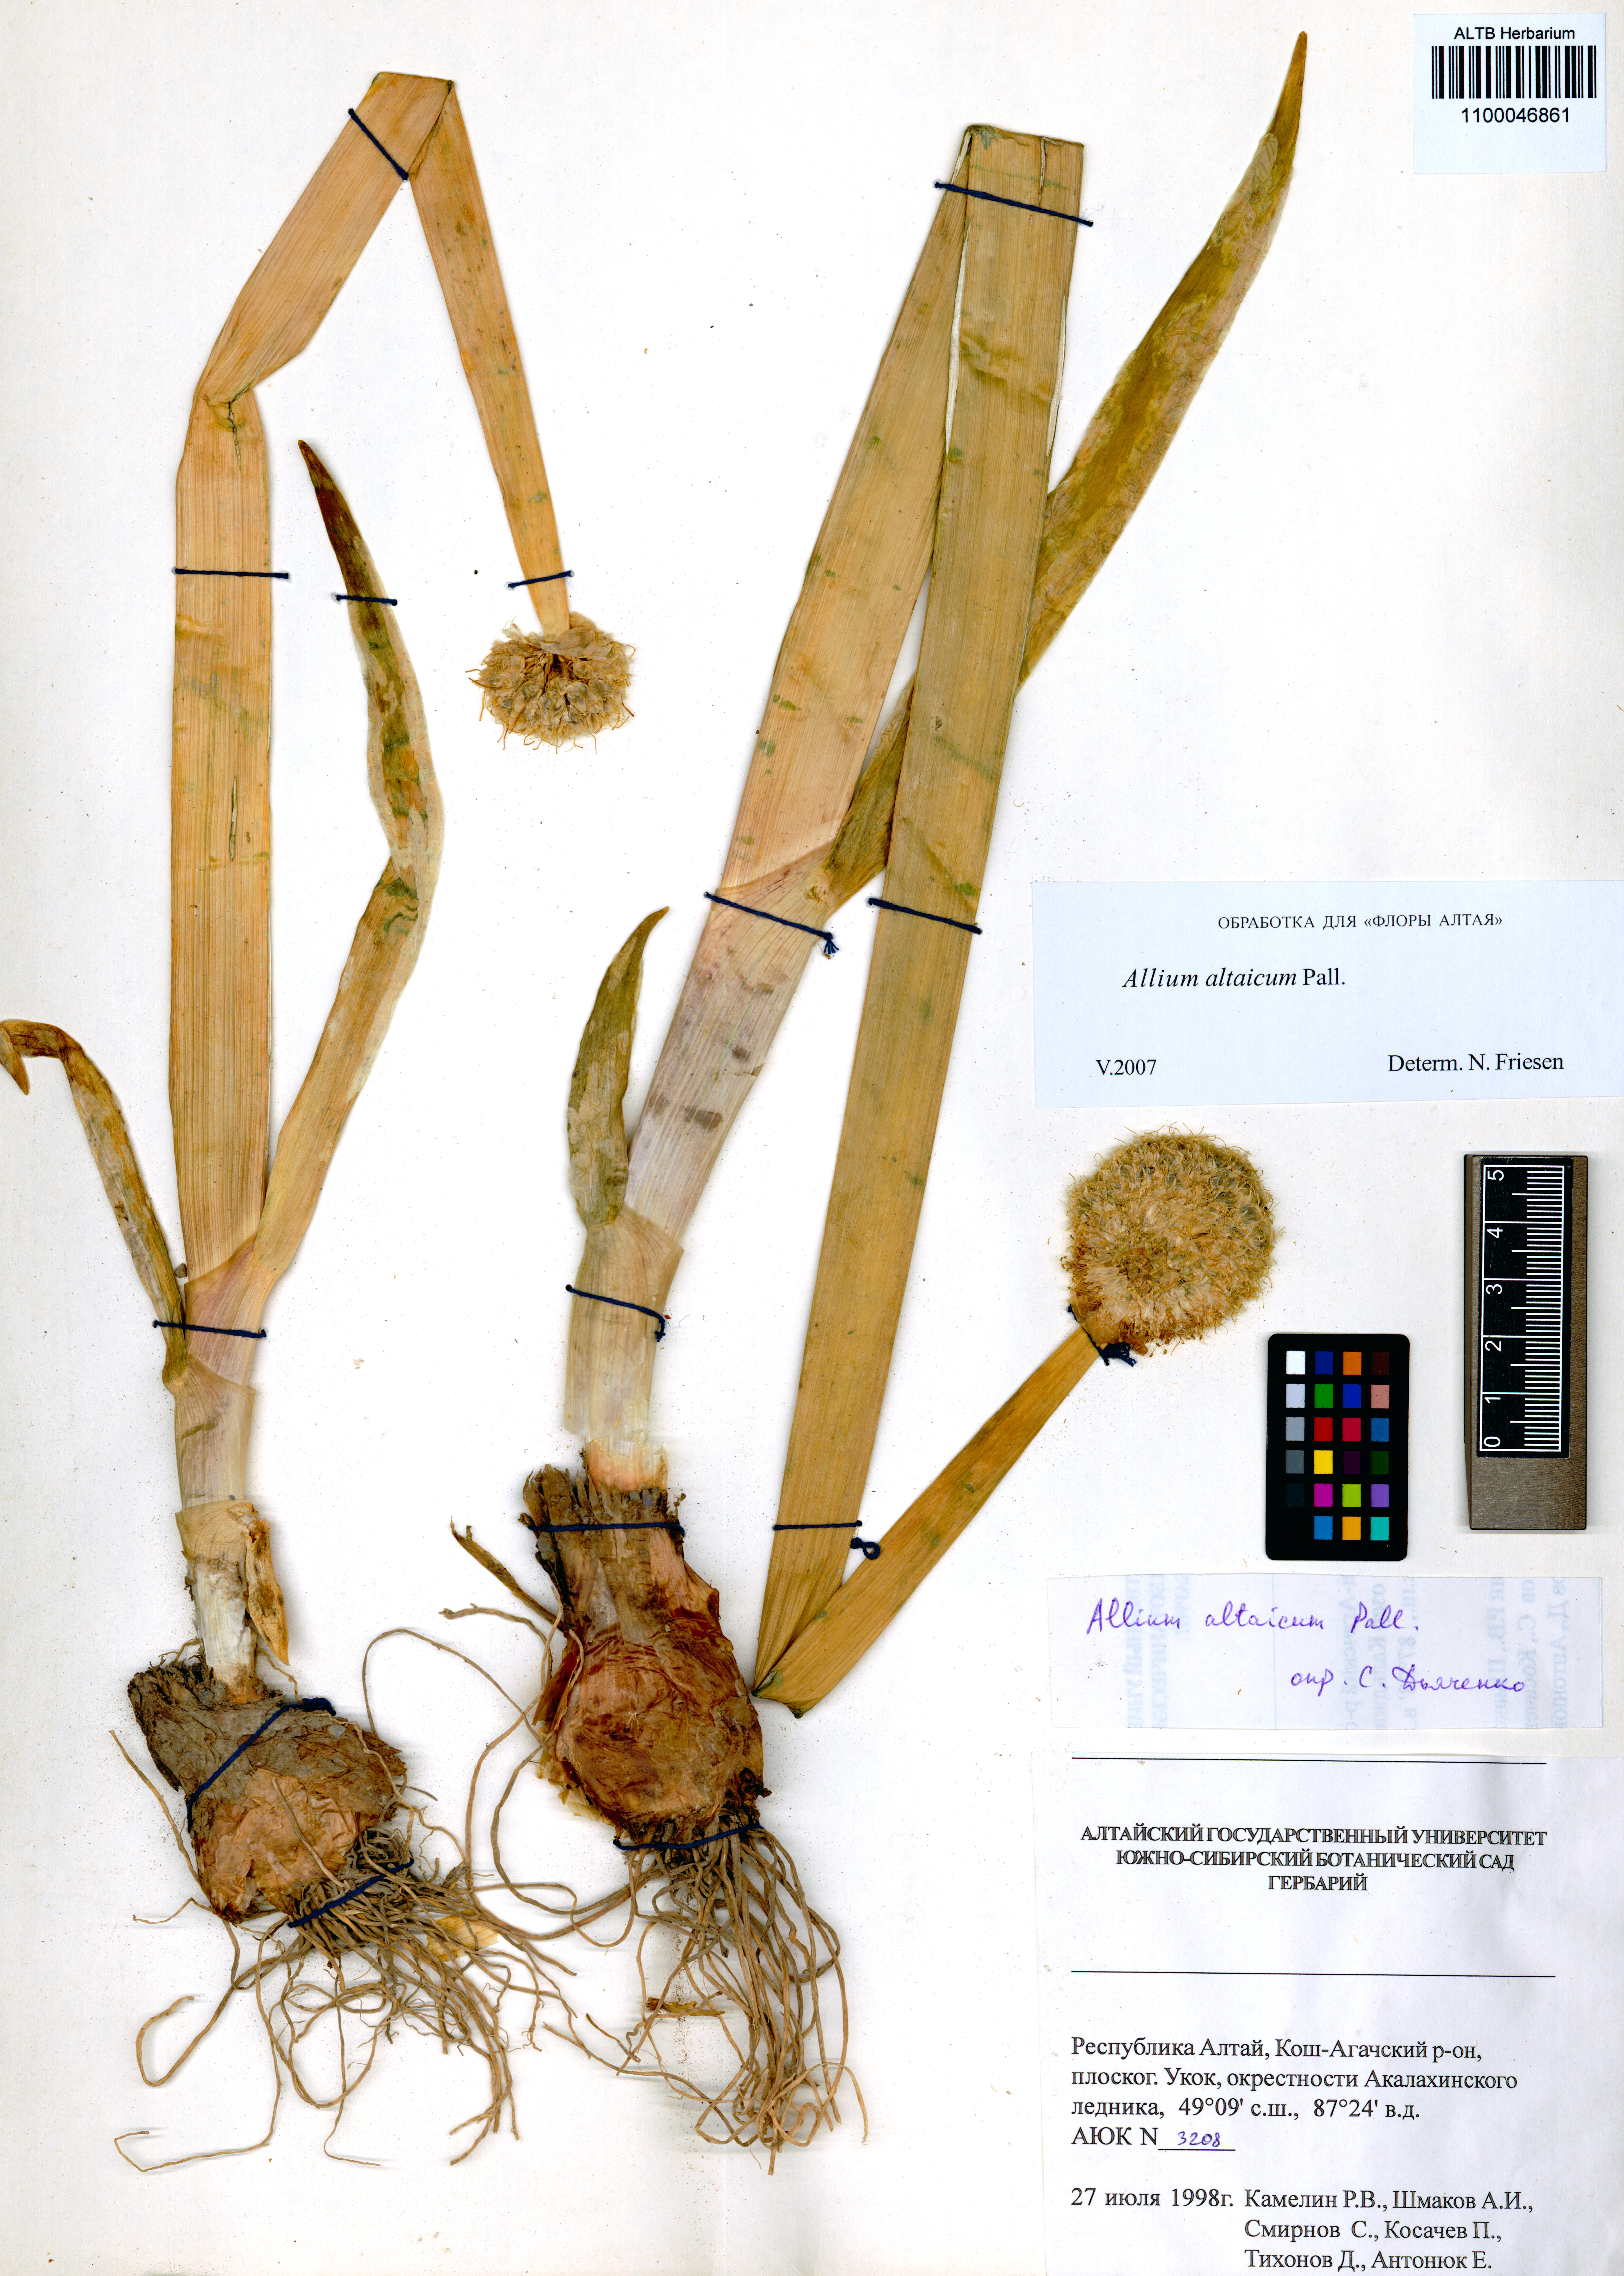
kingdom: Plantae
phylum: Tracheophyta
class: Liliopsida
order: Asparagales
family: Amaryllidaceae
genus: Allium
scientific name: Allium altaicum
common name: Altai onion
